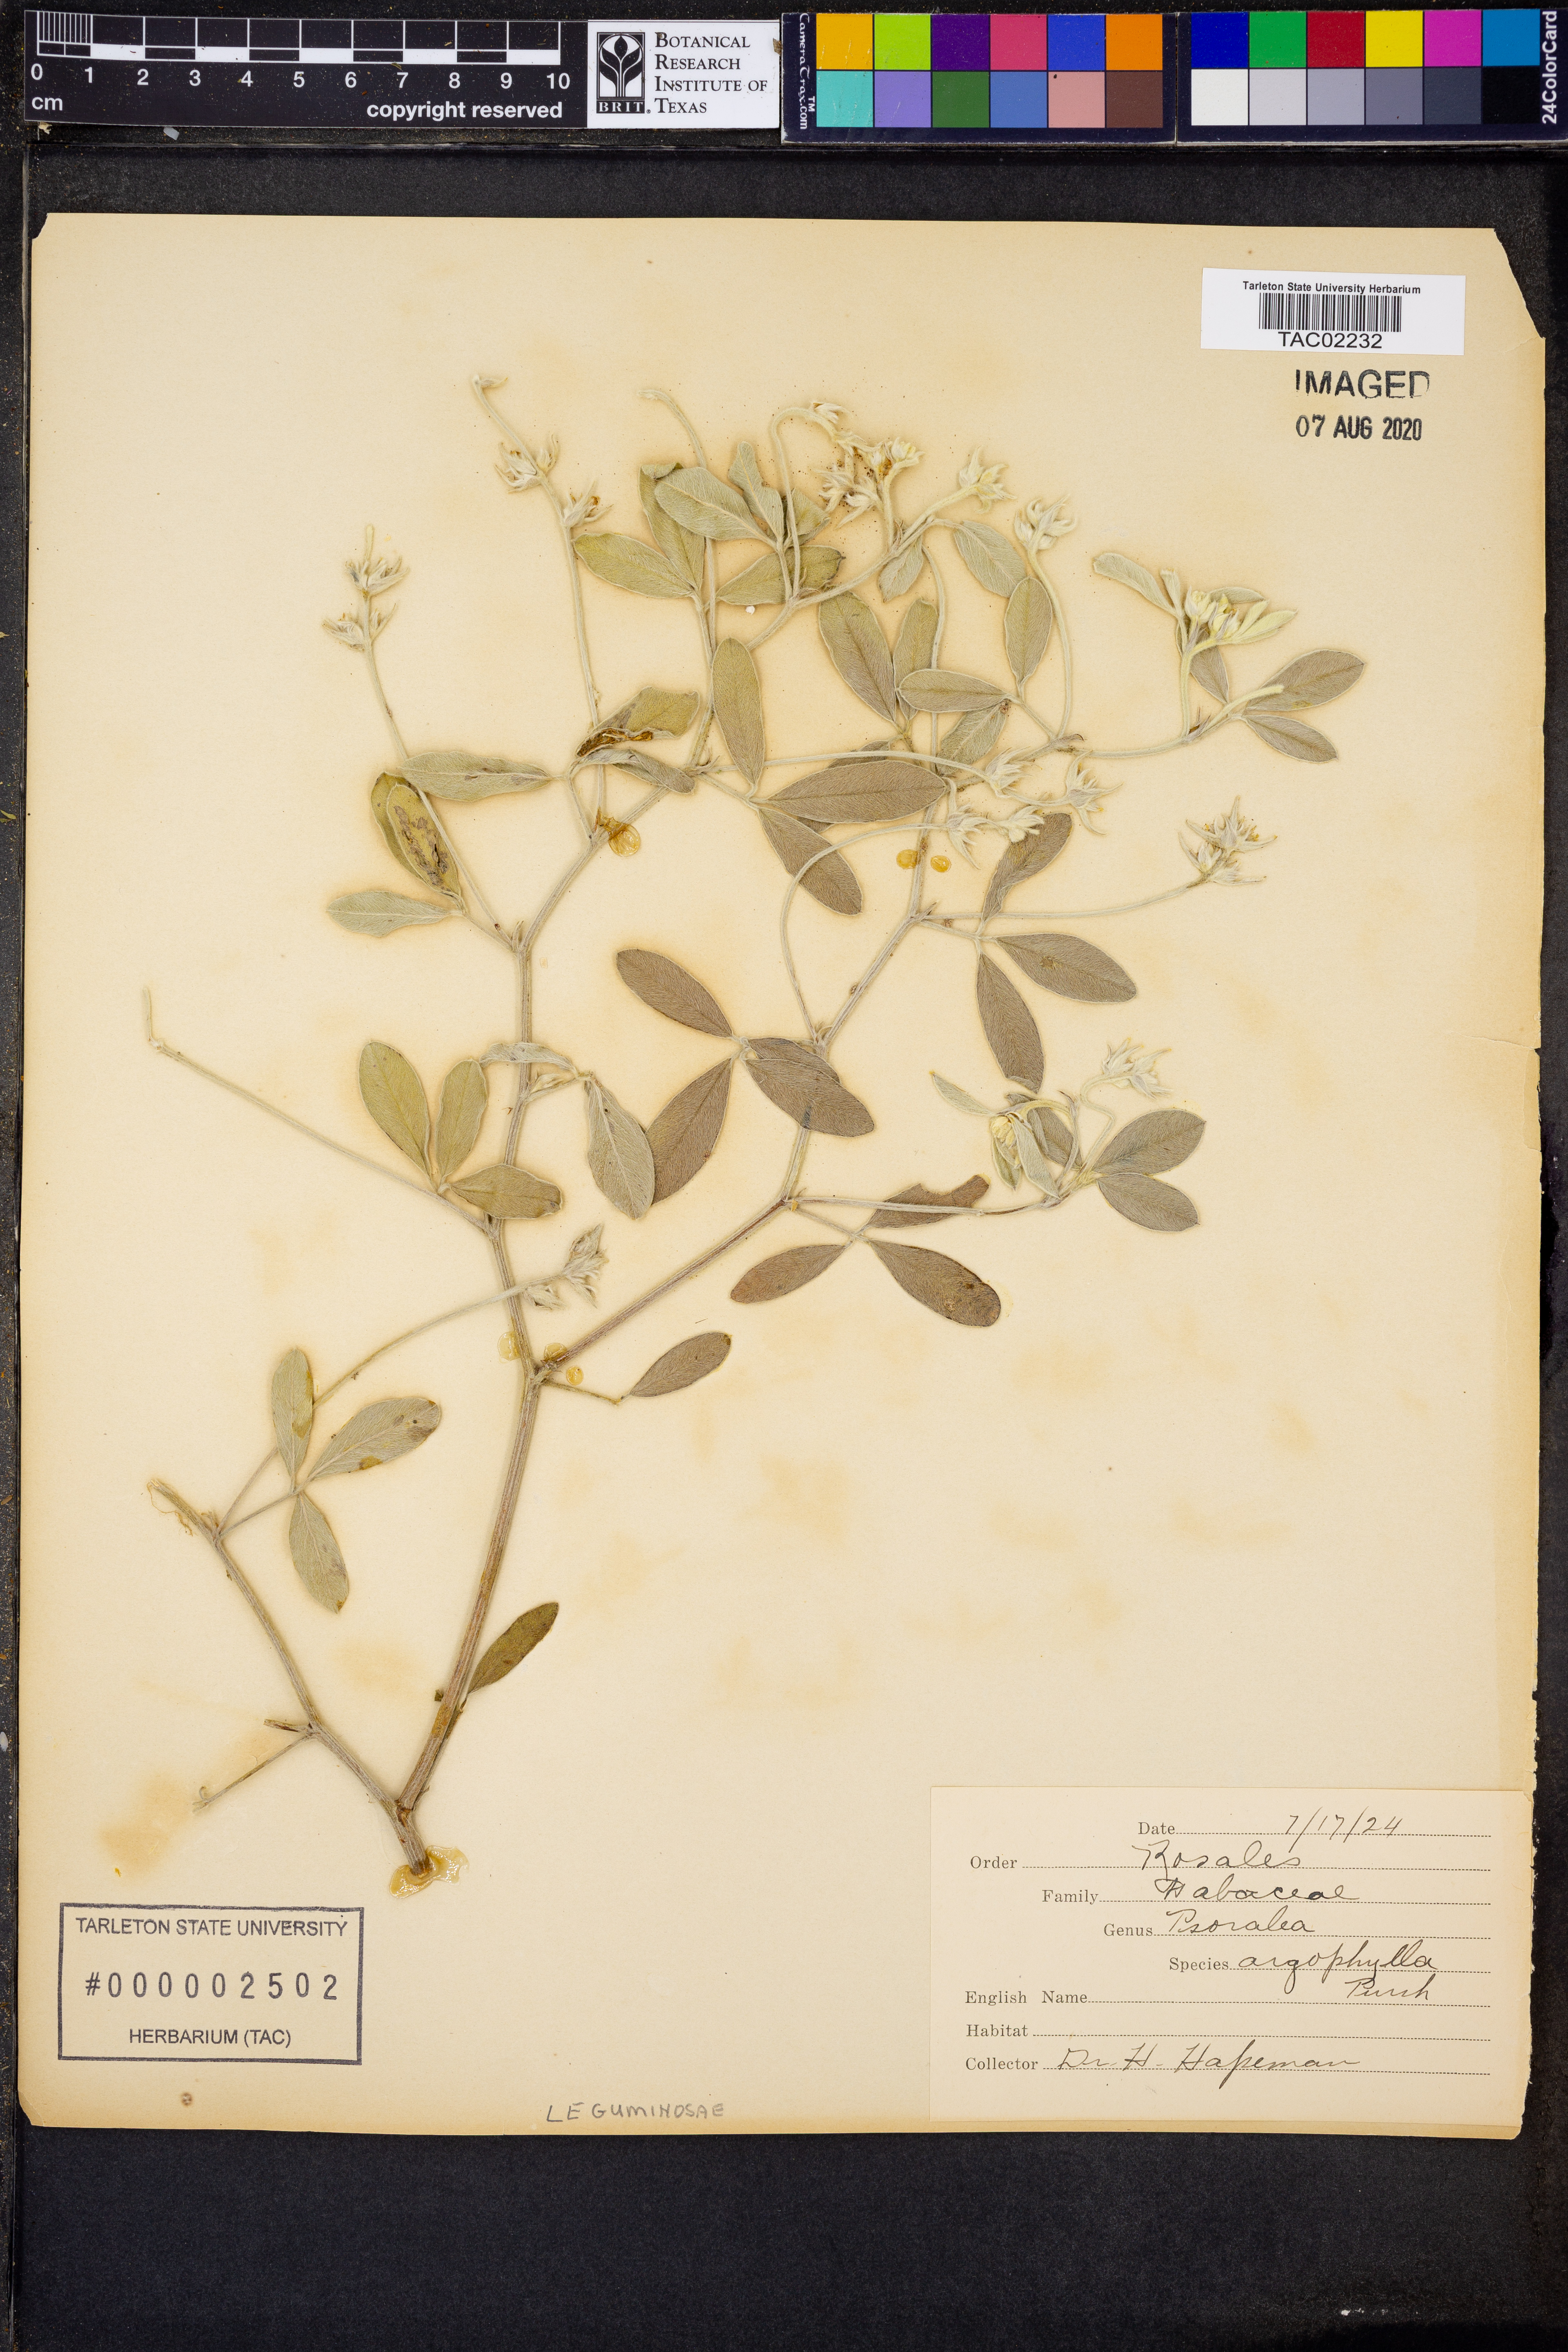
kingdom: Plantae
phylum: Tracheophyta
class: Magnoliopsida
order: Fabales
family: Fabaceae
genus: Pediomelum
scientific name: Pediomelum argophyllum
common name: Silver-leaved indian breadroot
